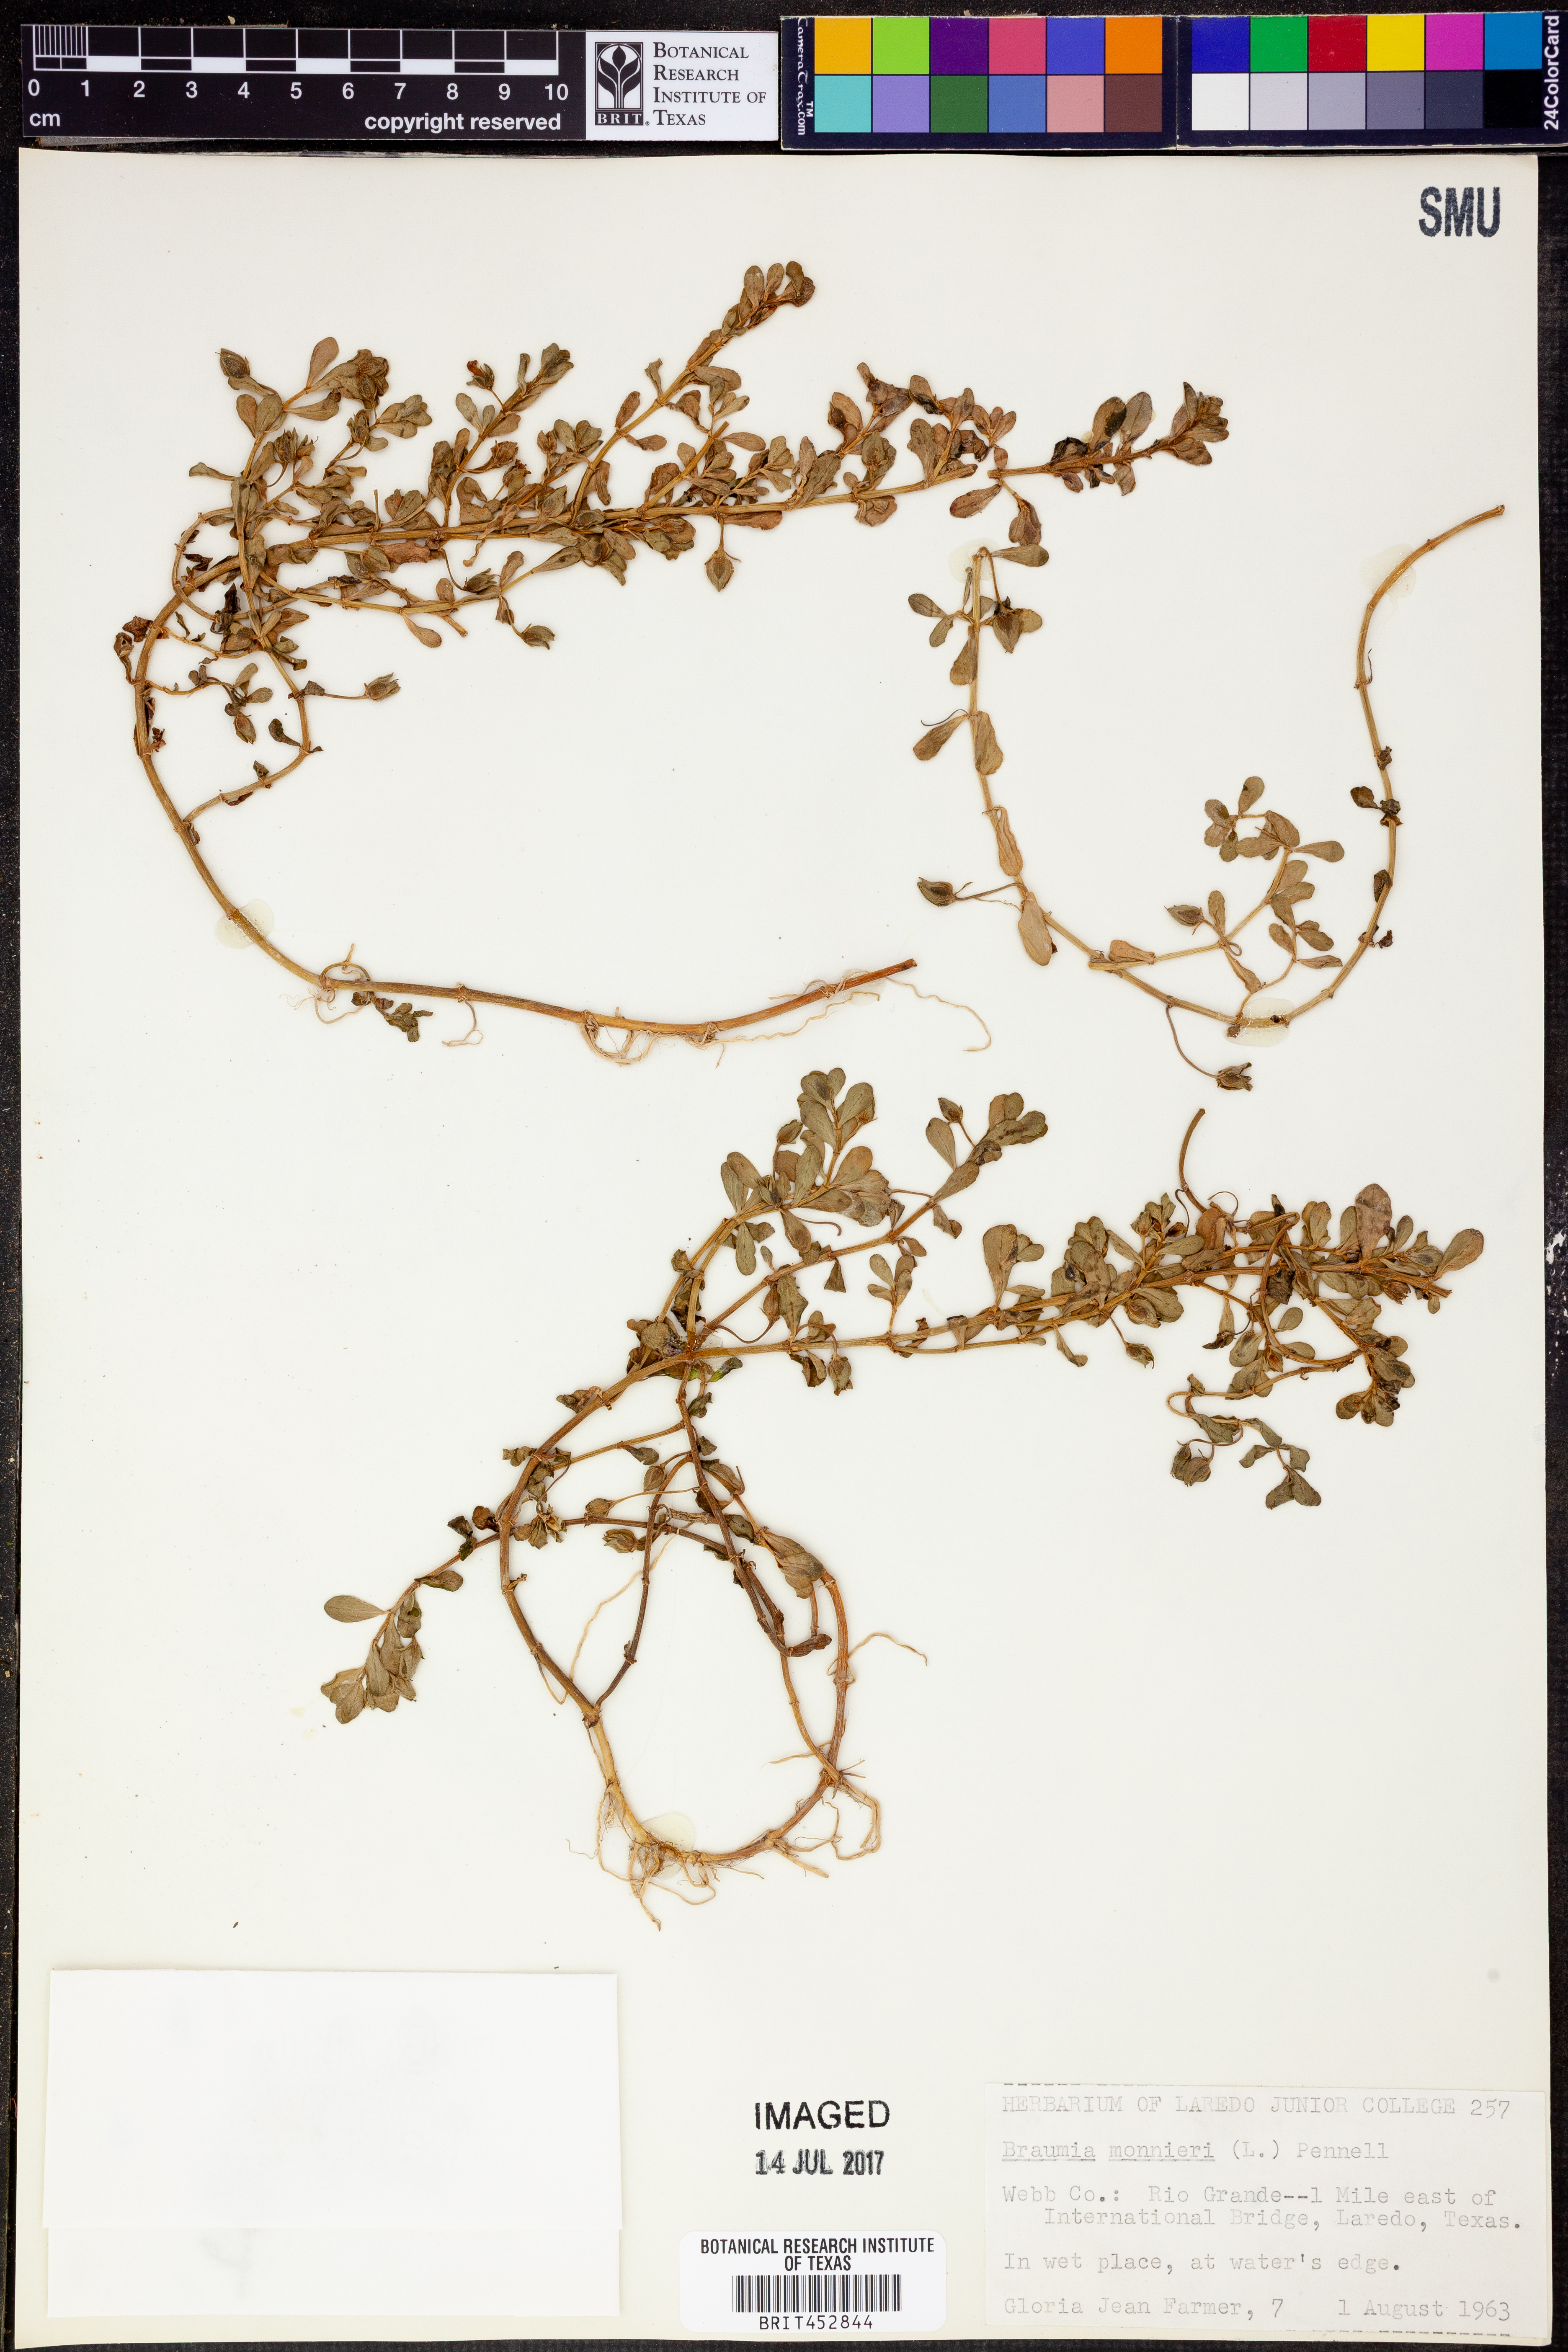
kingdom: Plantae
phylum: Tracheophyta
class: Magnoliopsida
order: Lamiales
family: Plantaginaceae
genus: Bacopa
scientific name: Bacopa monnieri
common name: Indian-pennywort
